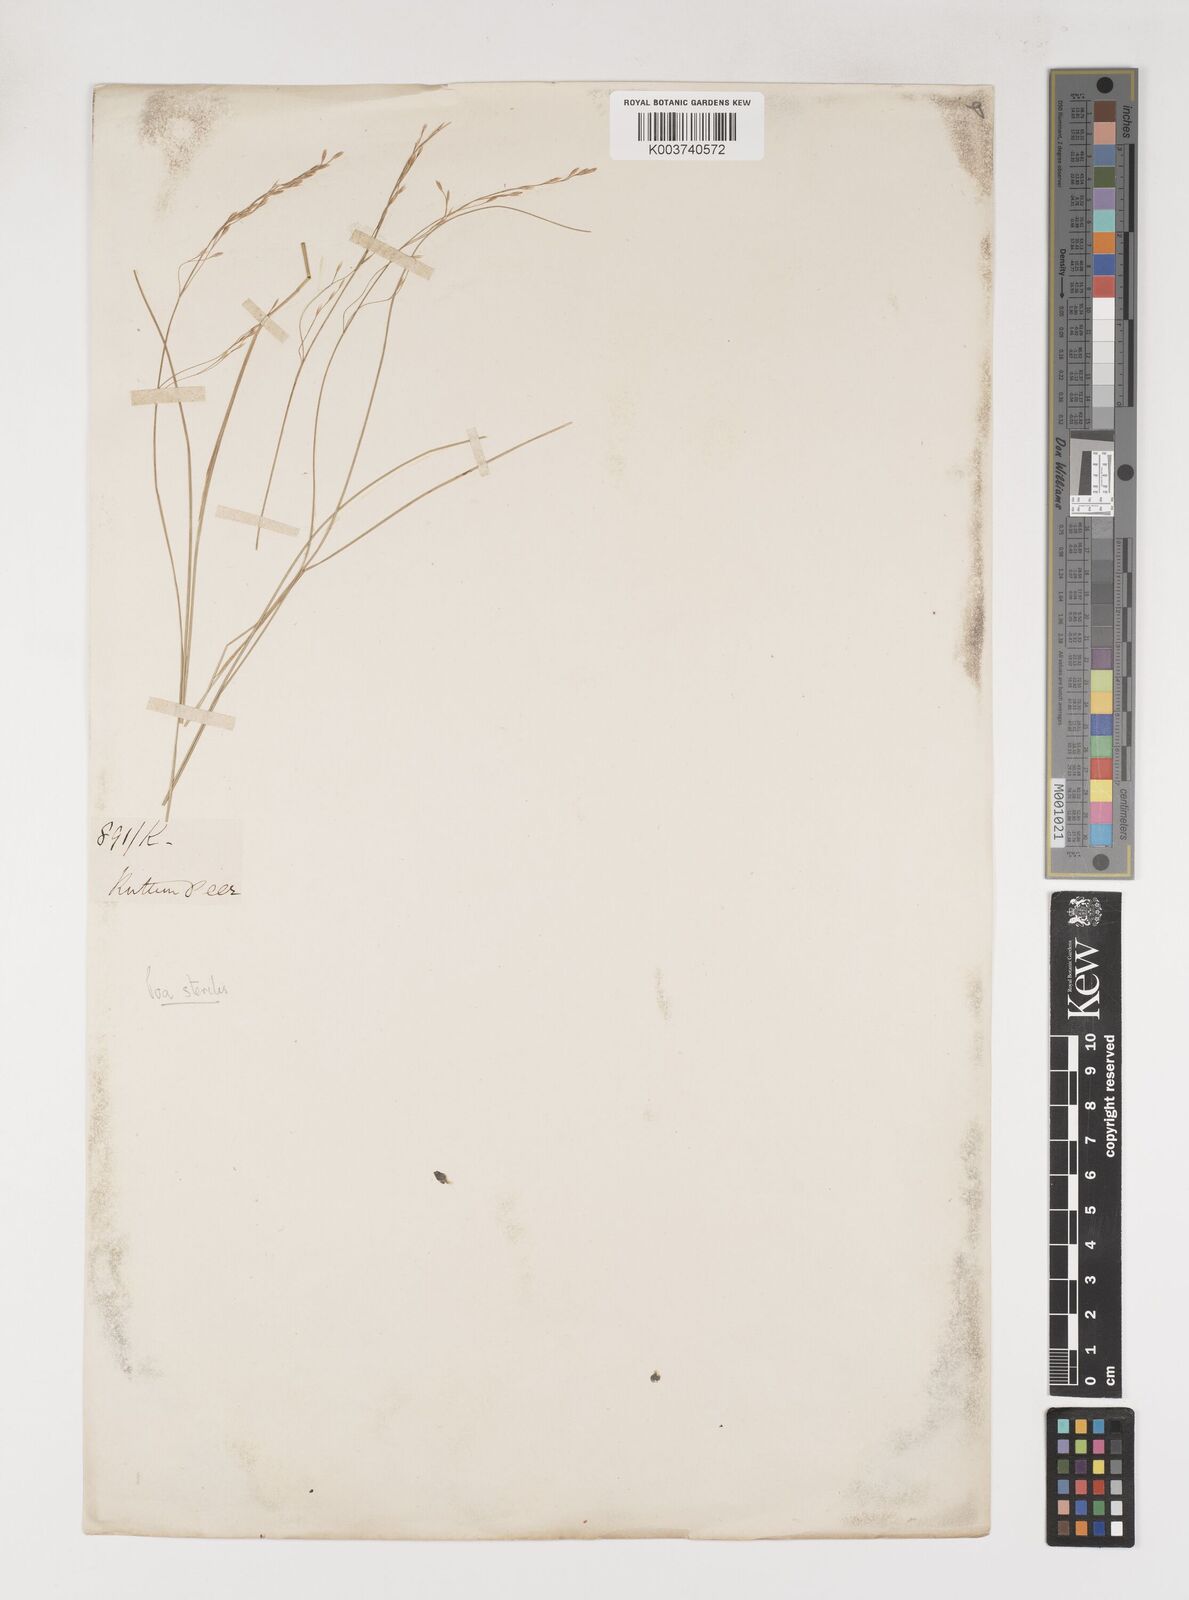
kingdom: Plantae
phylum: Tracheophyta
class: Liliopsida
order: Poales
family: Poaceae
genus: Poa
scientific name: Poa sterilis
